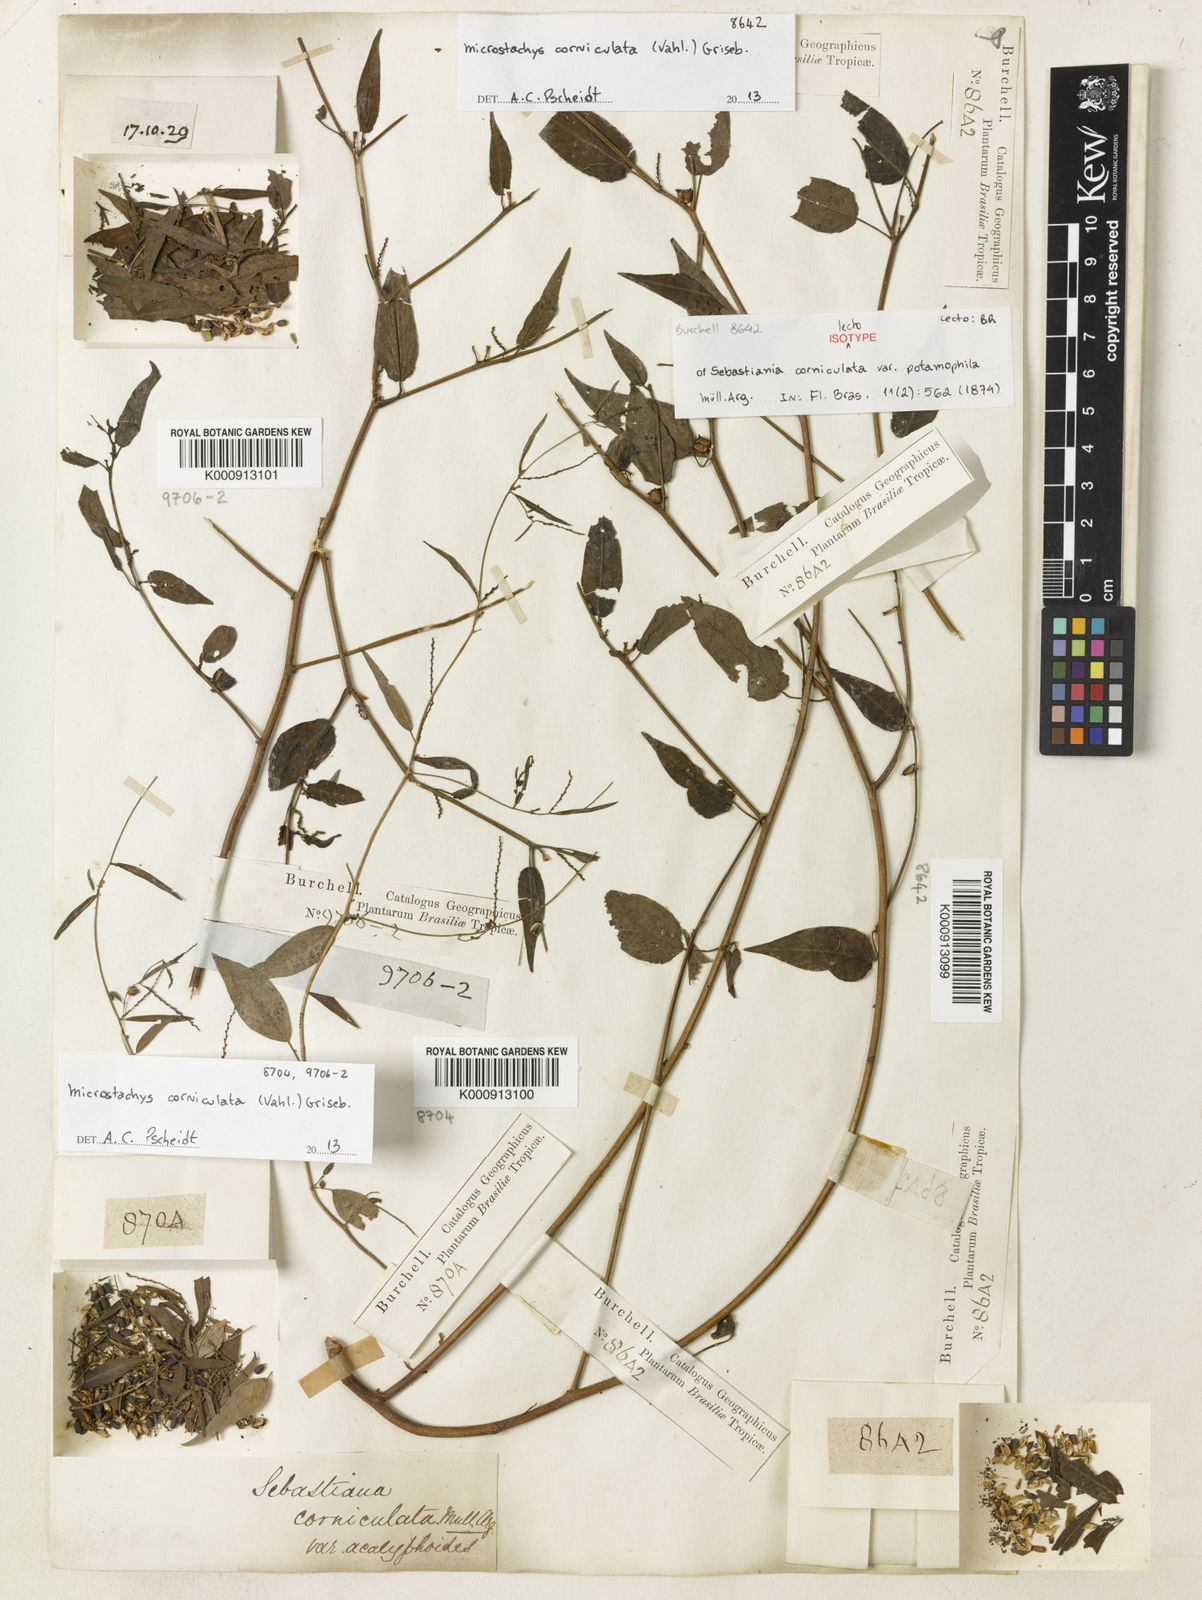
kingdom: Plantae
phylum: Tracheophyta
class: Magnoliopsida
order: Malpighiales
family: Euphorbiaceae
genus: Microstachys
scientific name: Microstachys corniculata
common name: Hato tejas
